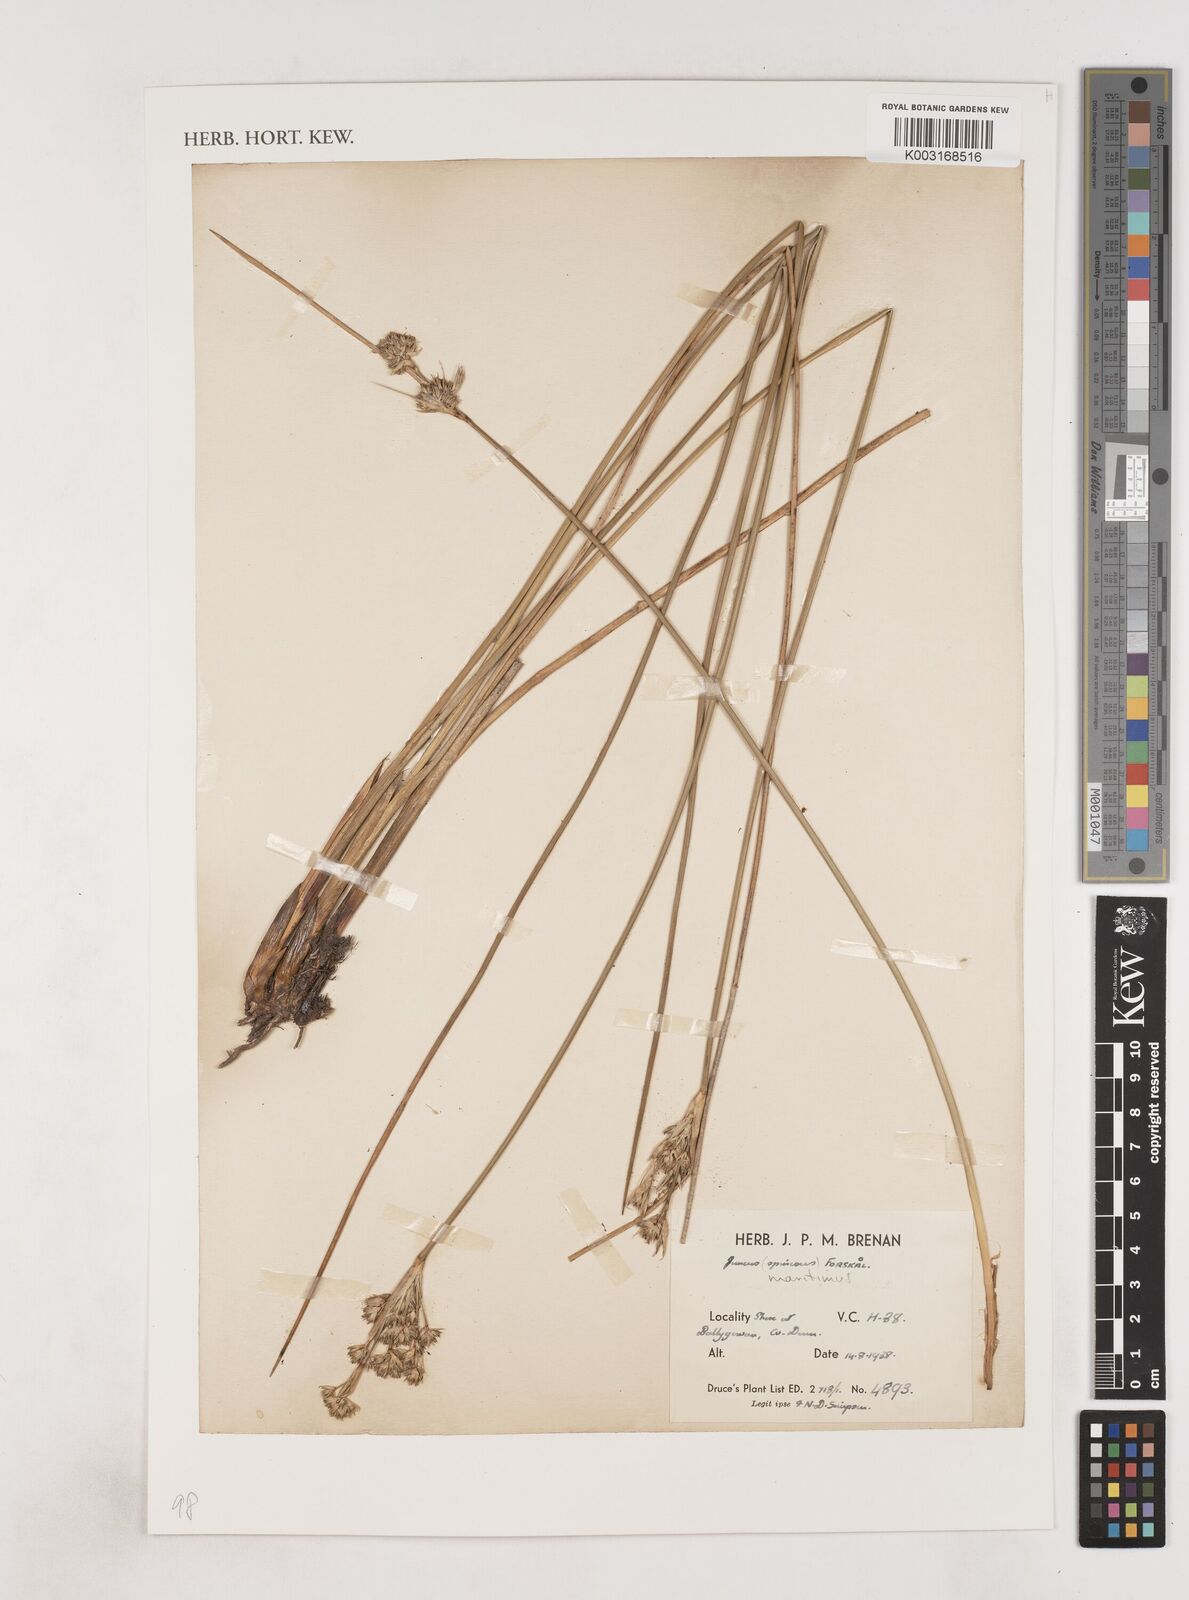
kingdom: Plantae
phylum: Tracheophyta
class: Liliopsida
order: Poales
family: Juncaceae
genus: Juncus
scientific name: Juncus maritimus
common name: Sea rush
